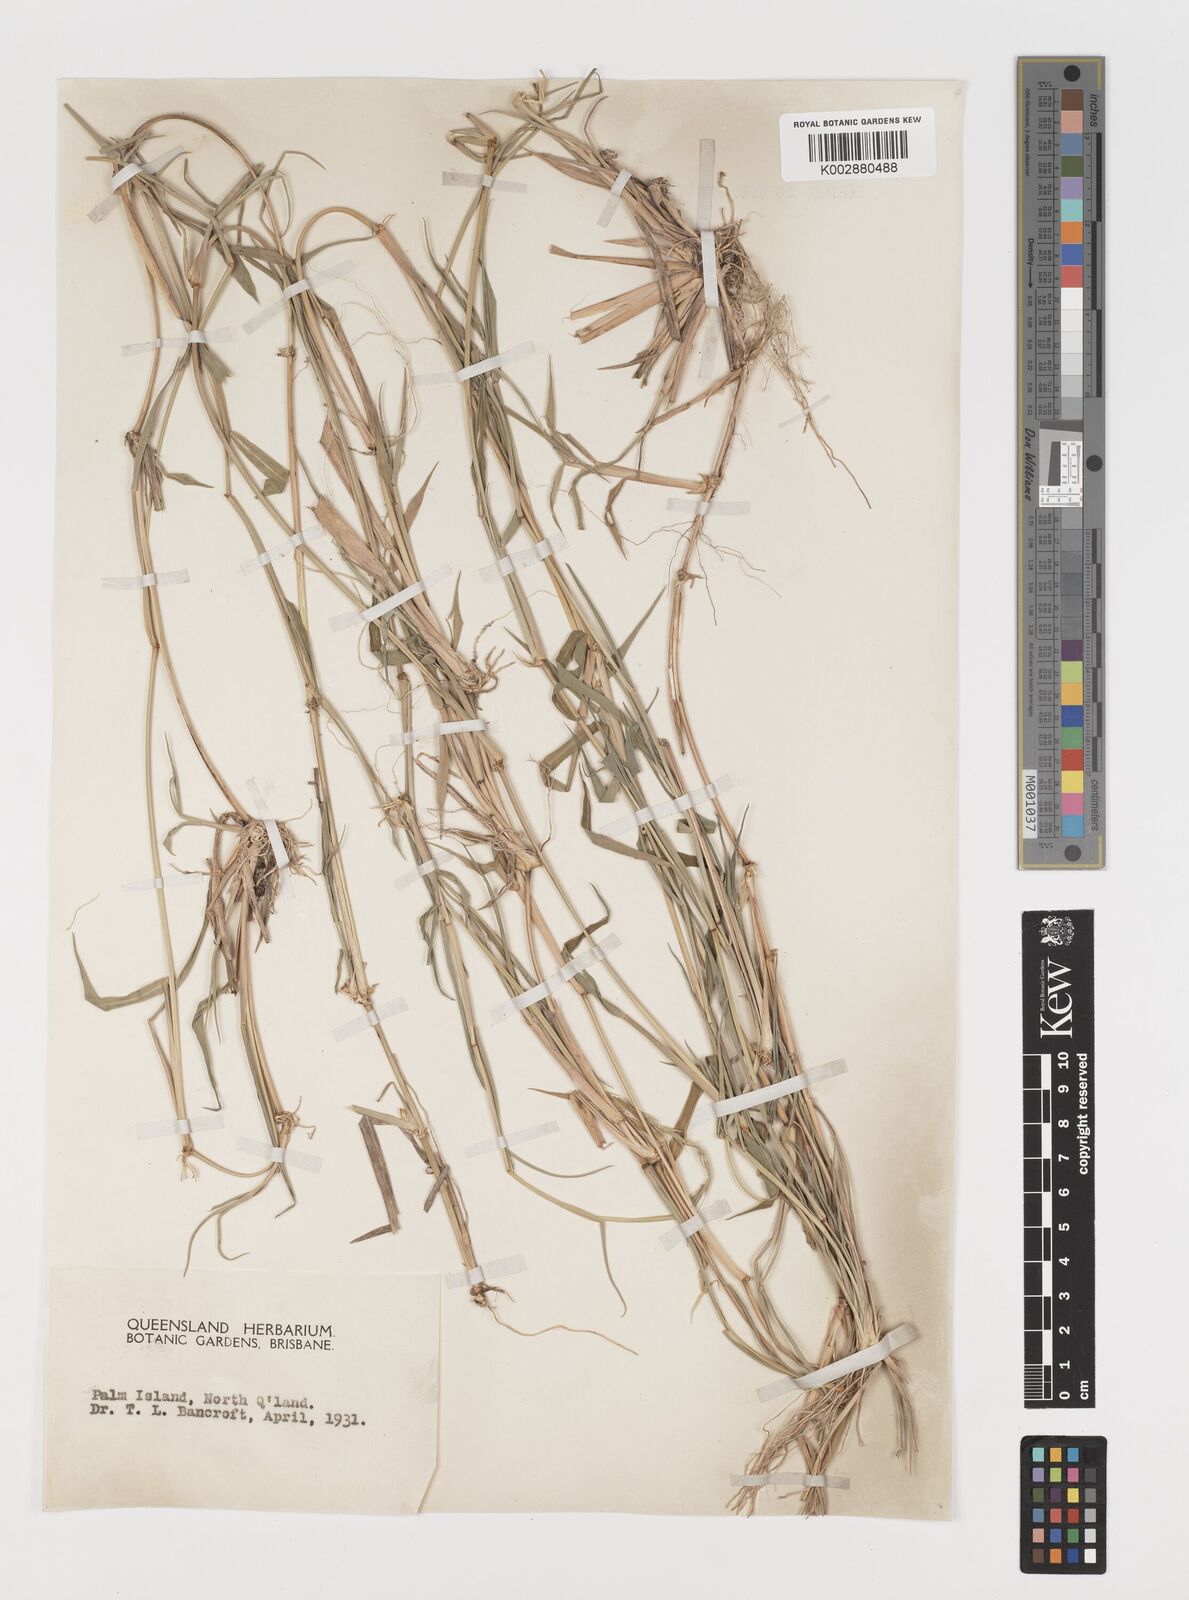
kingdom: Plantae
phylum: Tracheophyta
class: Liliopsida
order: Poales
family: Poaceae
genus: Lepturus
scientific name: Lepturus repens
